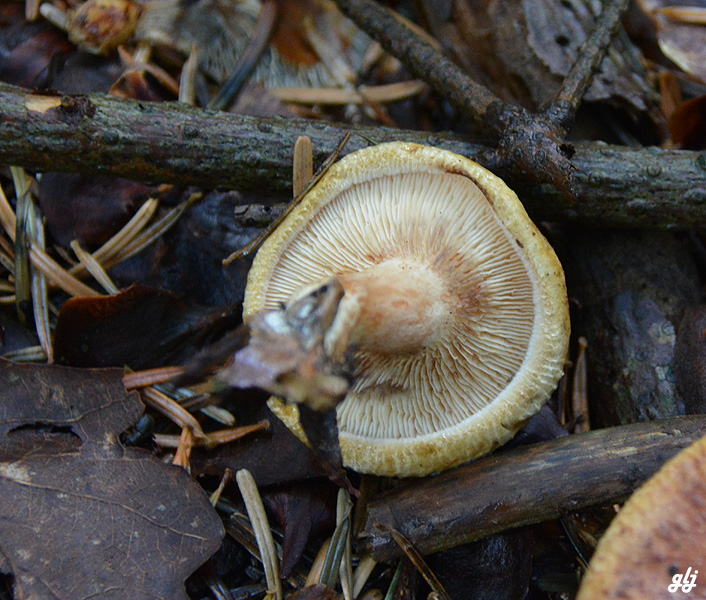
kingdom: Fungi
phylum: Basidiomycota
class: Agaricomycetes
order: Boletales
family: Paxillaceae
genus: Paxillus
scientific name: Paxillus involutus
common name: almindelig netbladhat
